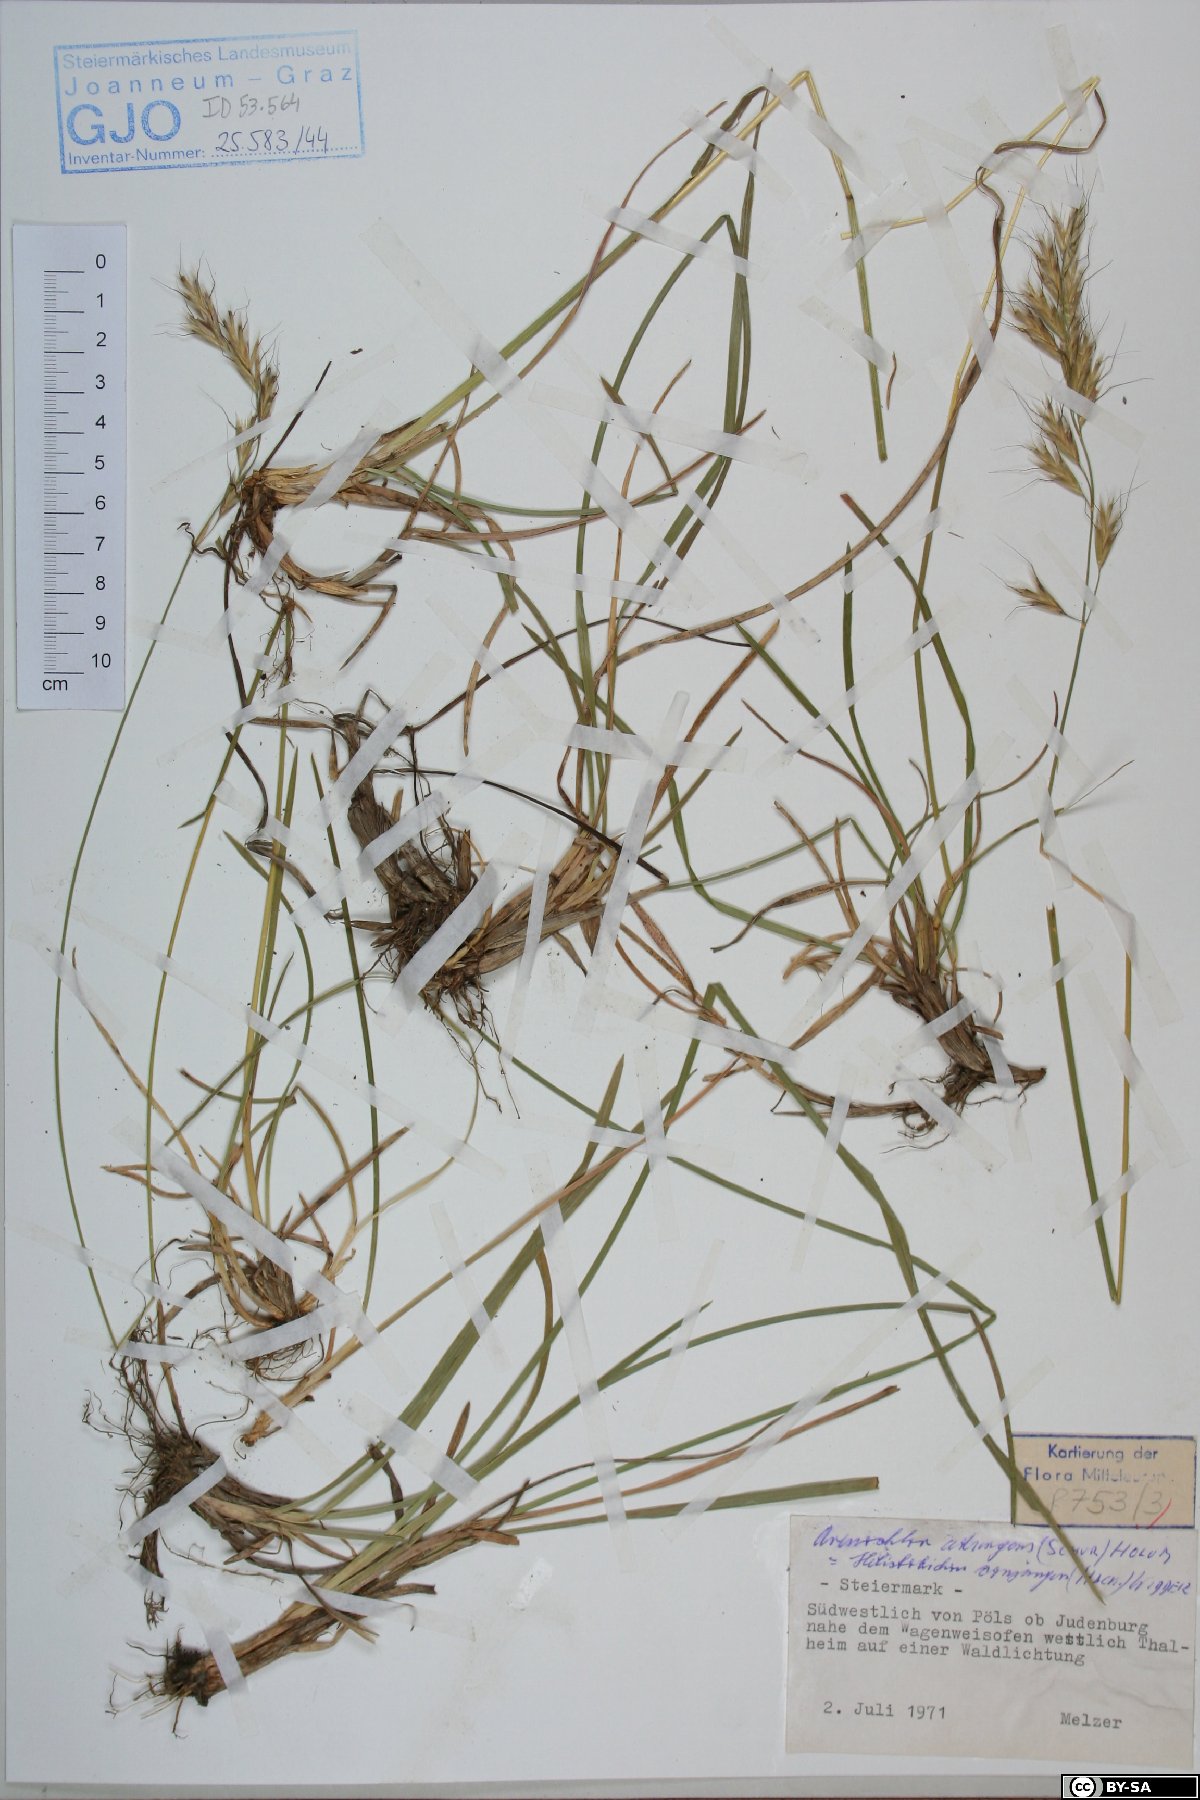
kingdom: Plantae
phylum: Tracheophyta
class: Liliopsida
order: Poales
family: Poaceae
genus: Helictochloa
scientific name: Helictochloa praeusta
